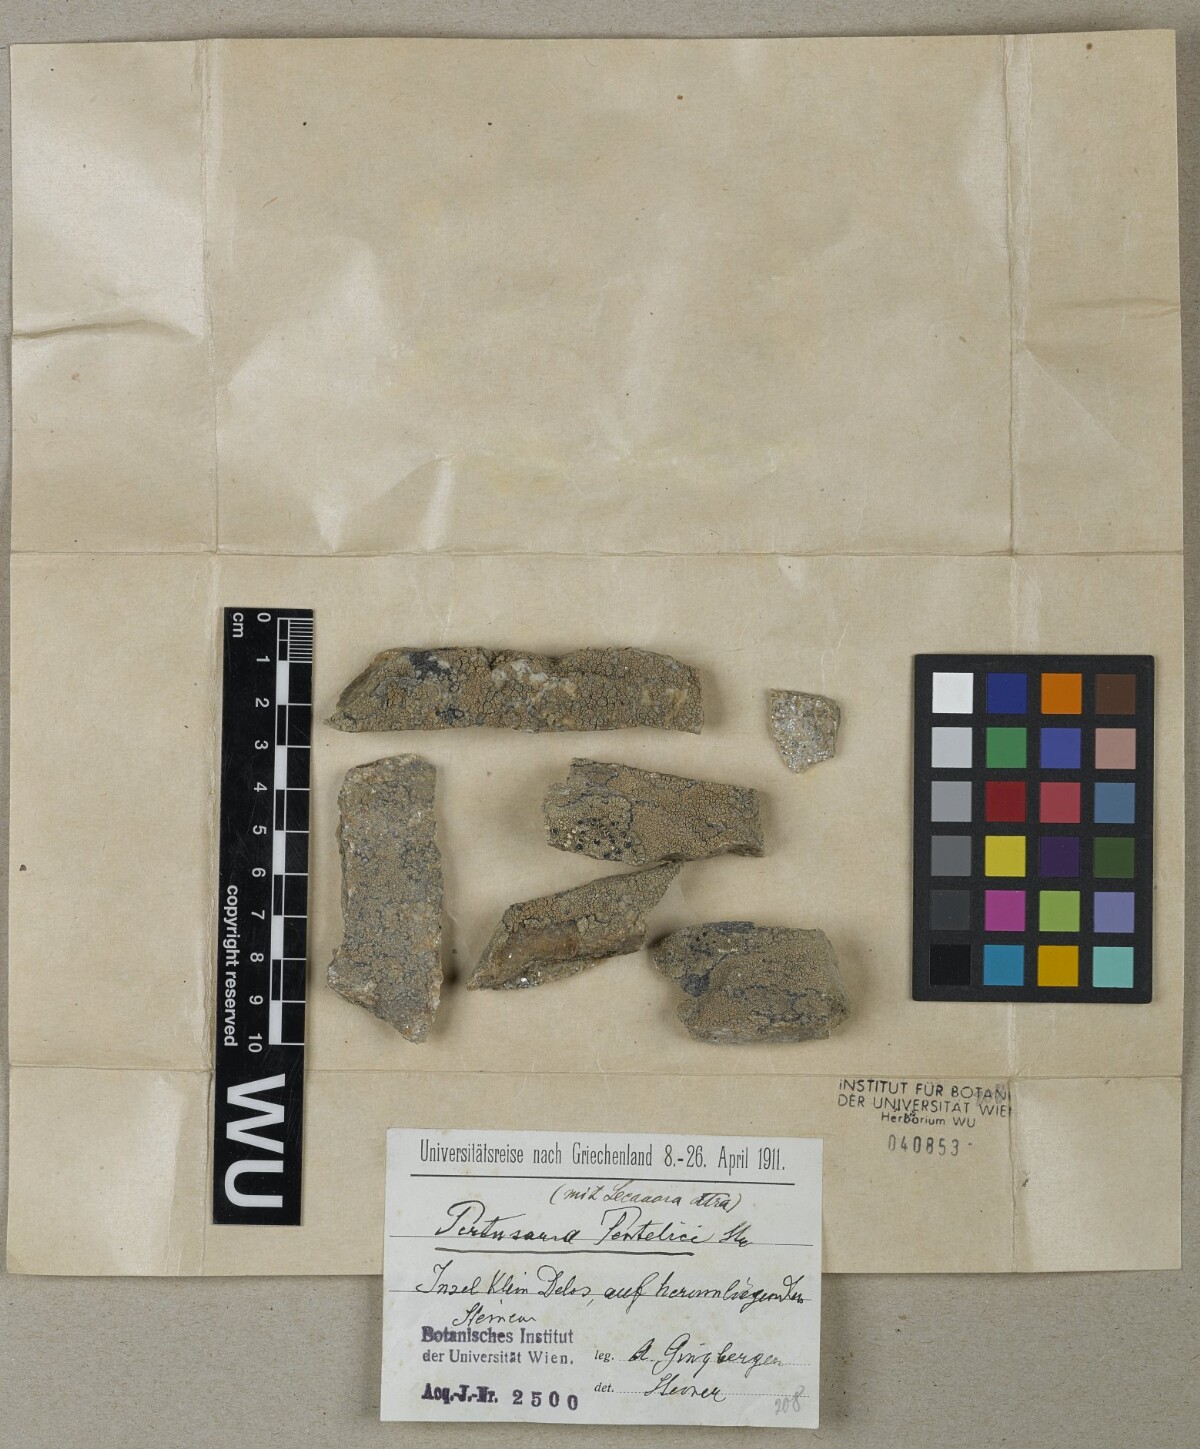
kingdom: Fungi
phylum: Ascomycota
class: Lecanoromycetes
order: Pertusariales
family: Pertusariaceae
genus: Pertusaria
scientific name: Pertusaria pentelici
